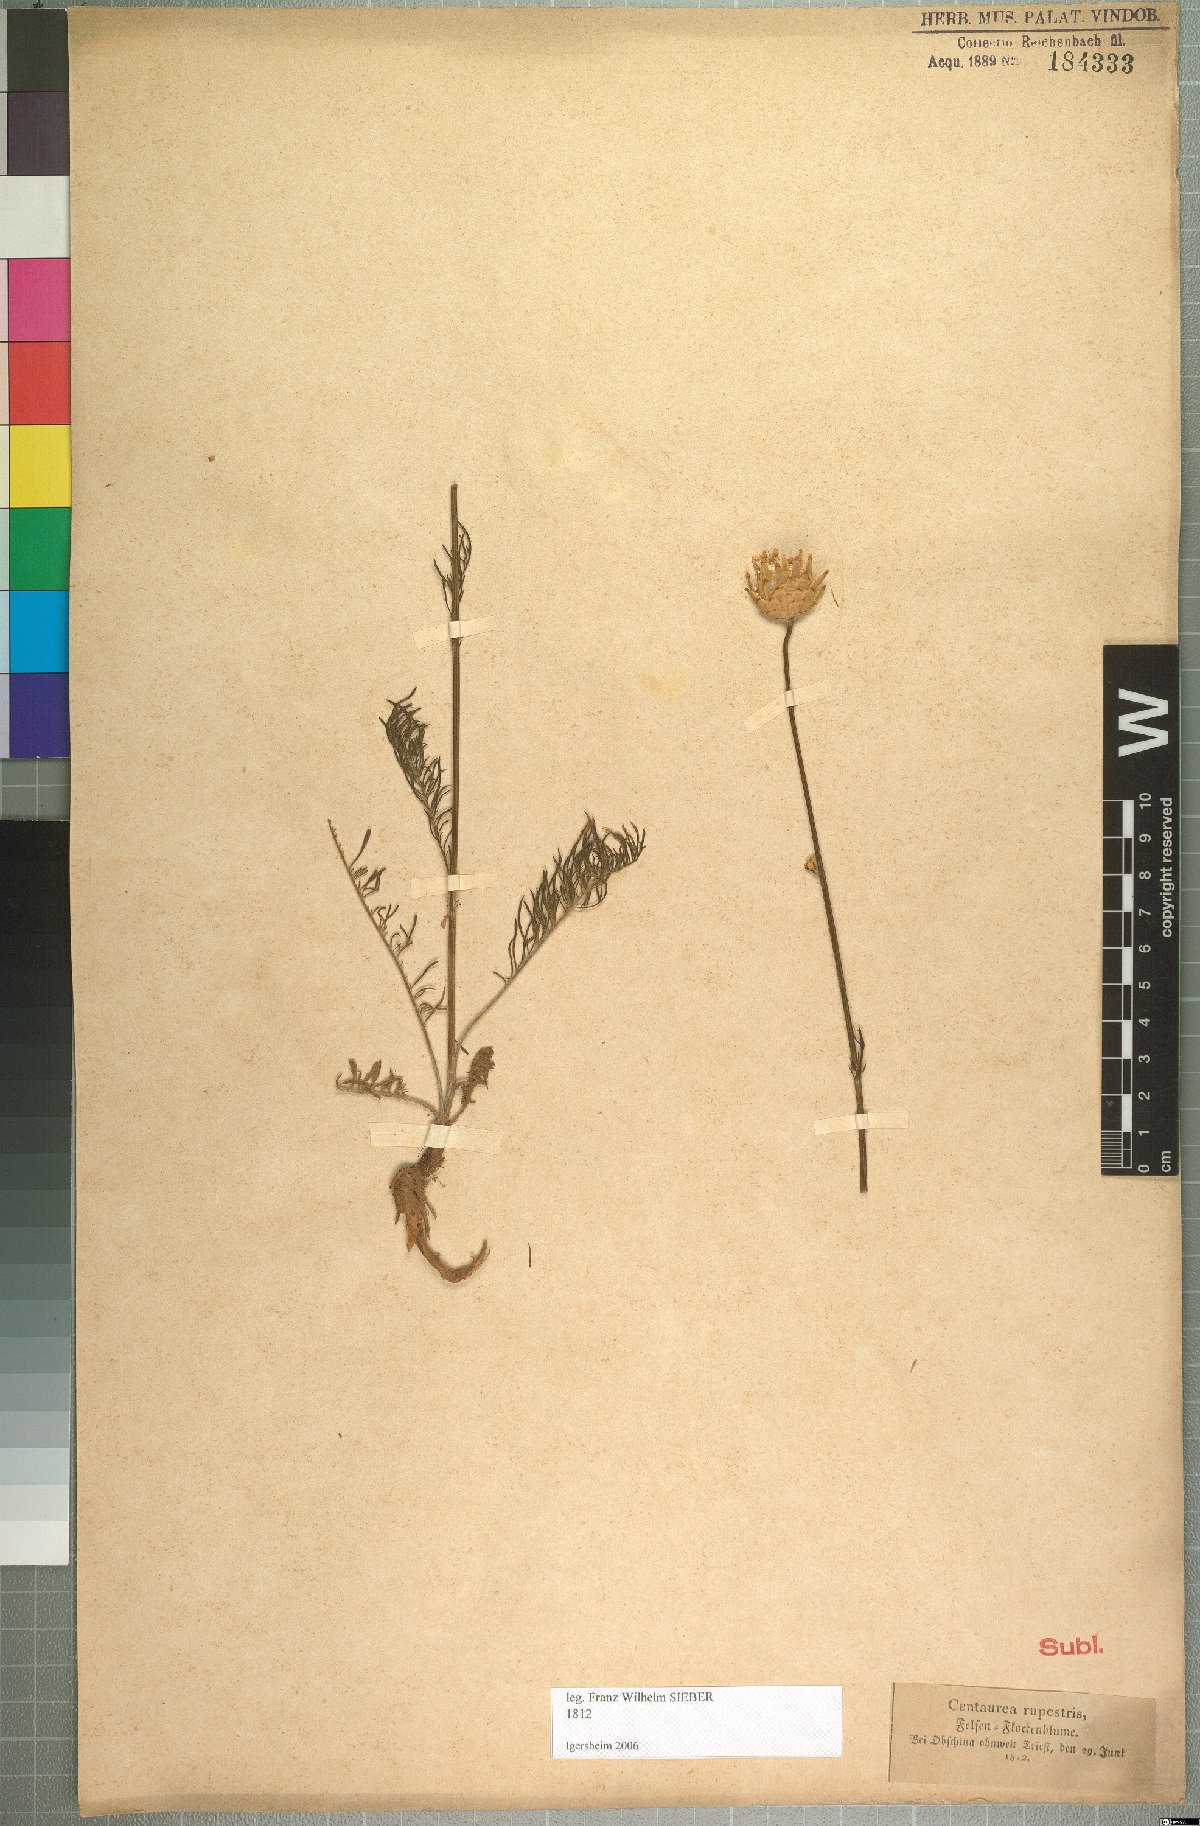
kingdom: Plantae
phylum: Tracheophyta
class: Magnoliopsida
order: Asterales
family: Asteraceae
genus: Centaurea
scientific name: Centaurea arachnoidea
